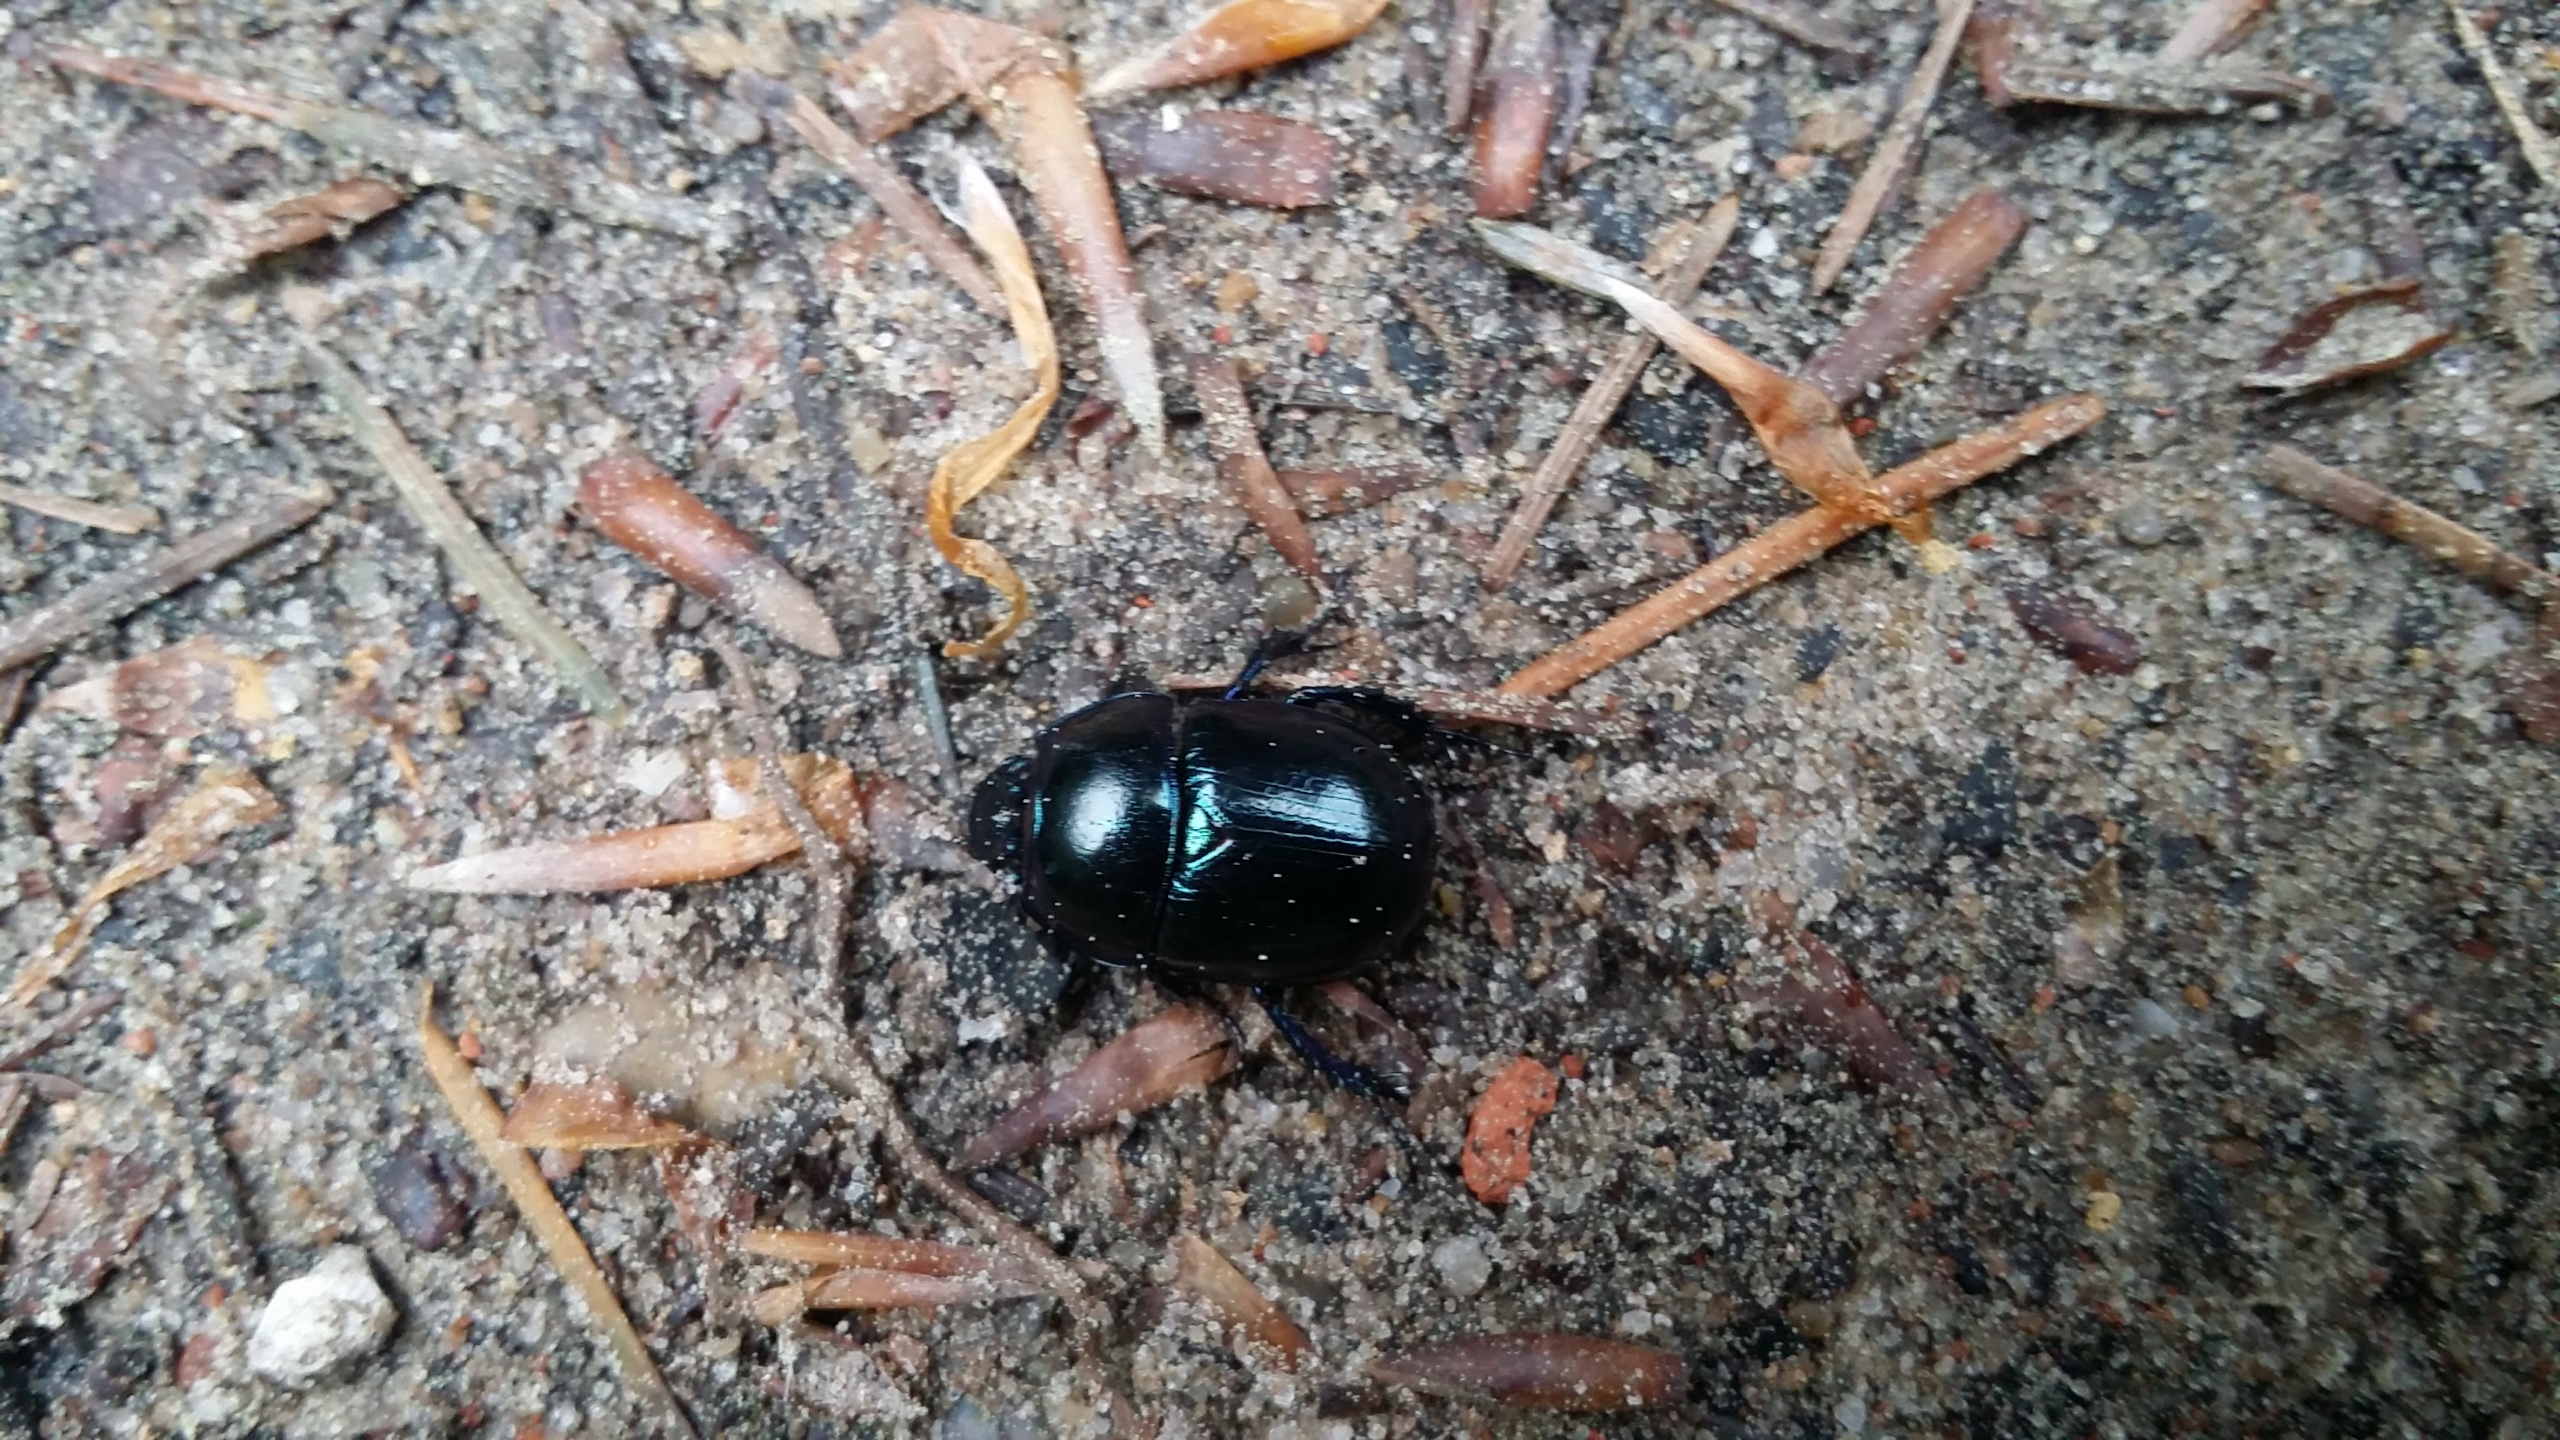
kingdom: Animalia
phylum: Arthropoda
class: Insecta
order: Coleoptera
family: Geotrupidae
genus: Anoplotrupes
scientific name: Anoplotrupes stercorosus
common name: Skovskarnbasse
